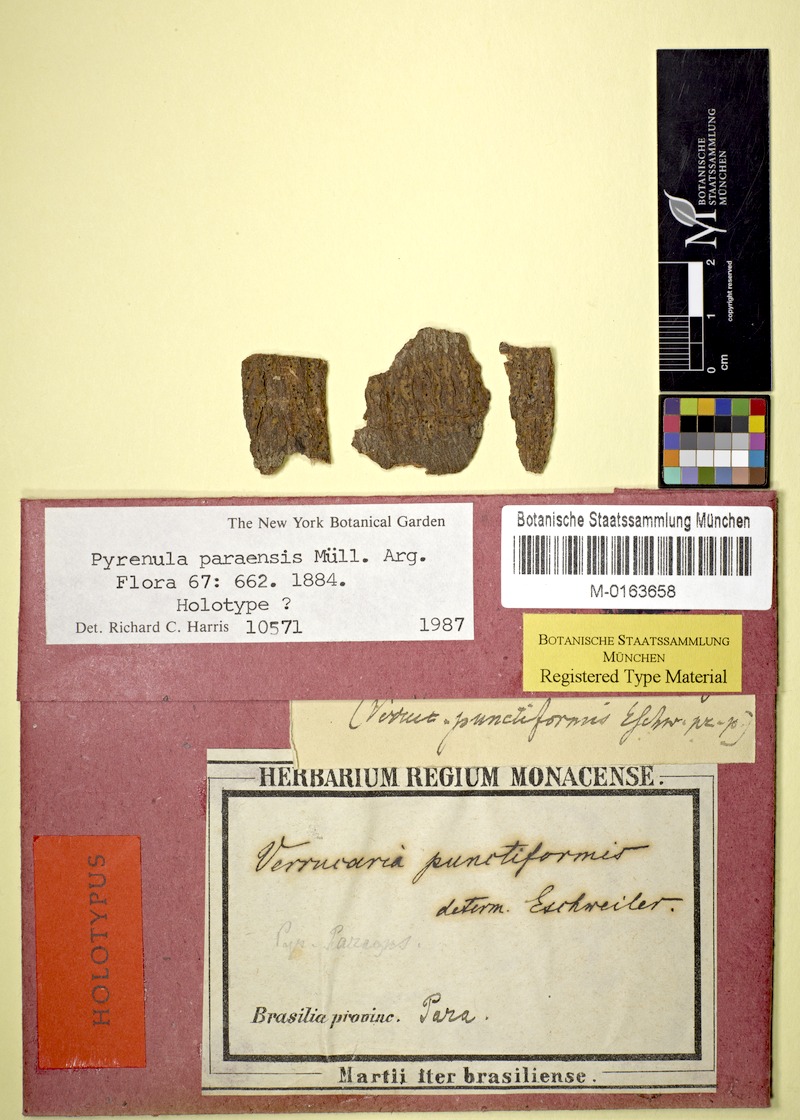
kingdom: Fungi
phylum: Ascomycota
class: Eurotiomycetes
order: Pyrenulales
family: Pyrenulaceae
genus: Pyrenula
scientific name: Pyrenula
